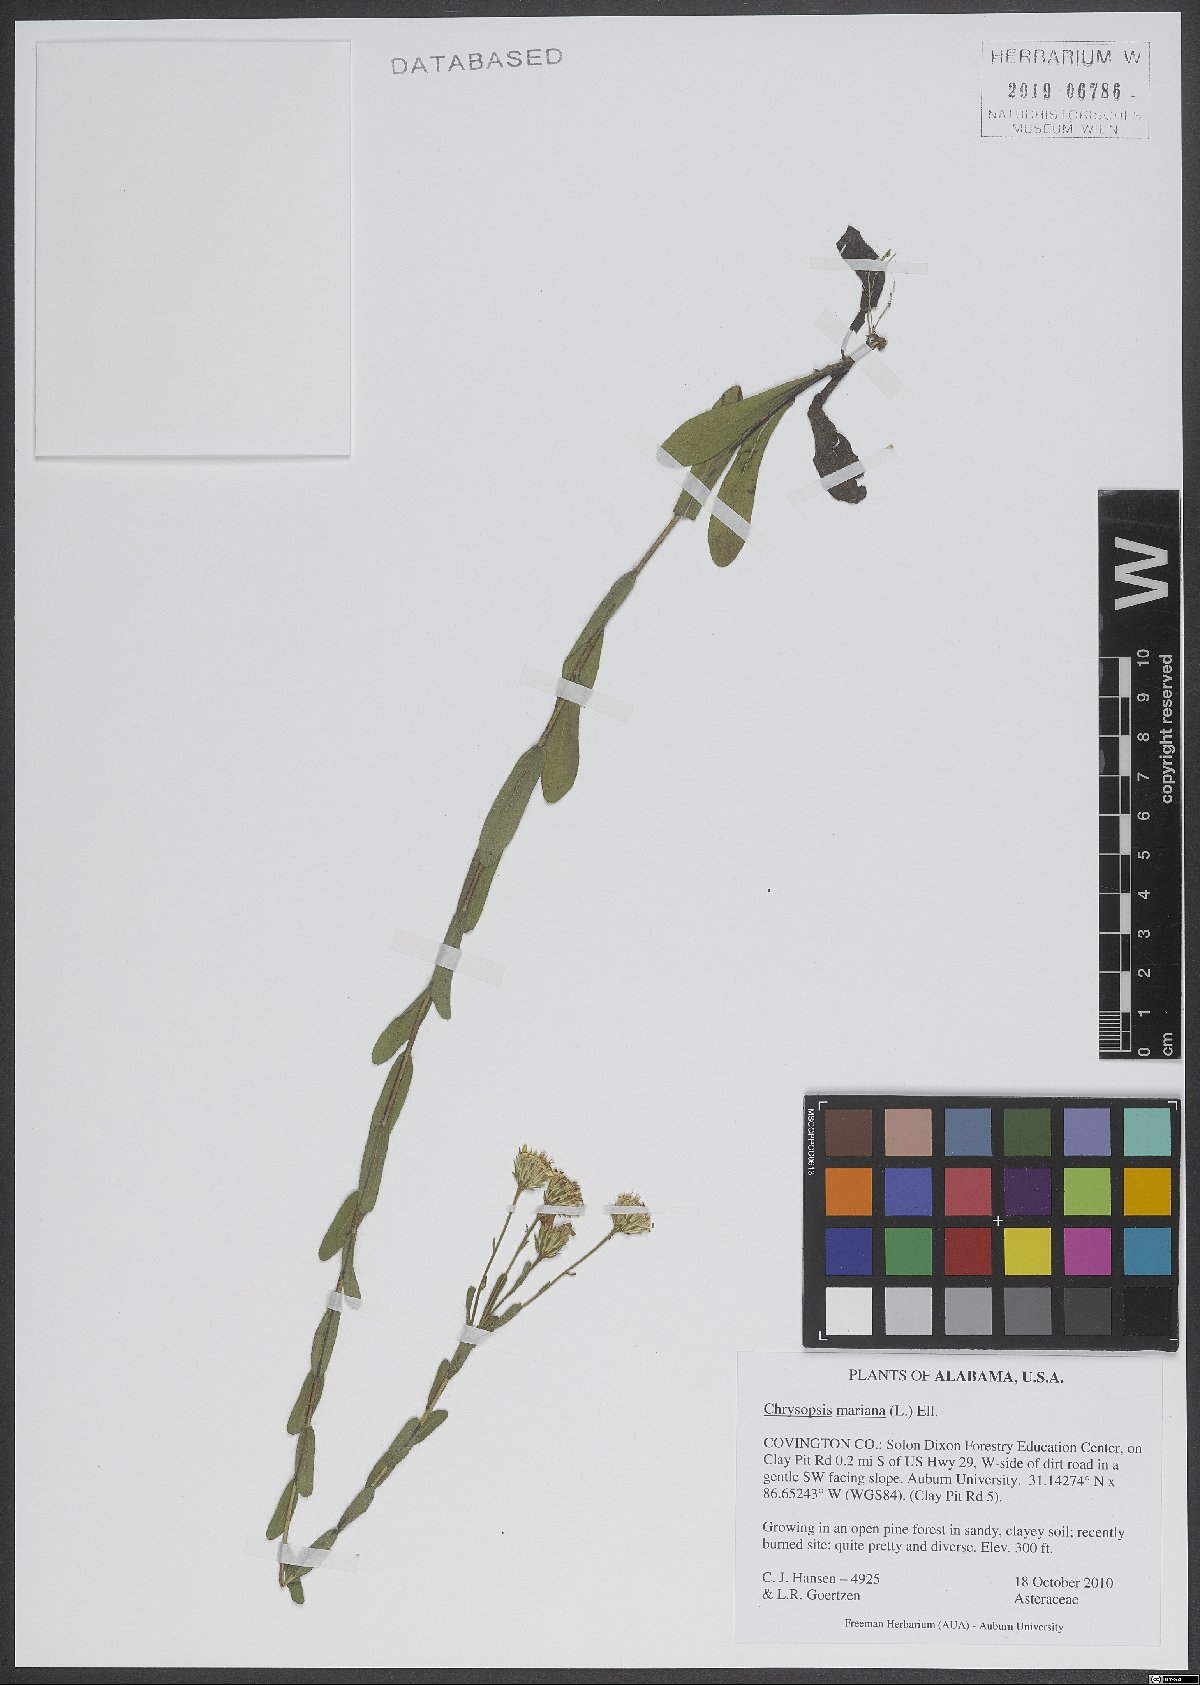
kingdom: Plantae
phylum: Tracheophyta
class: Magnoliopsida
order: Asterales
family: Asteraceae
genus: Chrysopsis
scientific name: Chrysopsis mariana
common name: Maryland golden-aster
